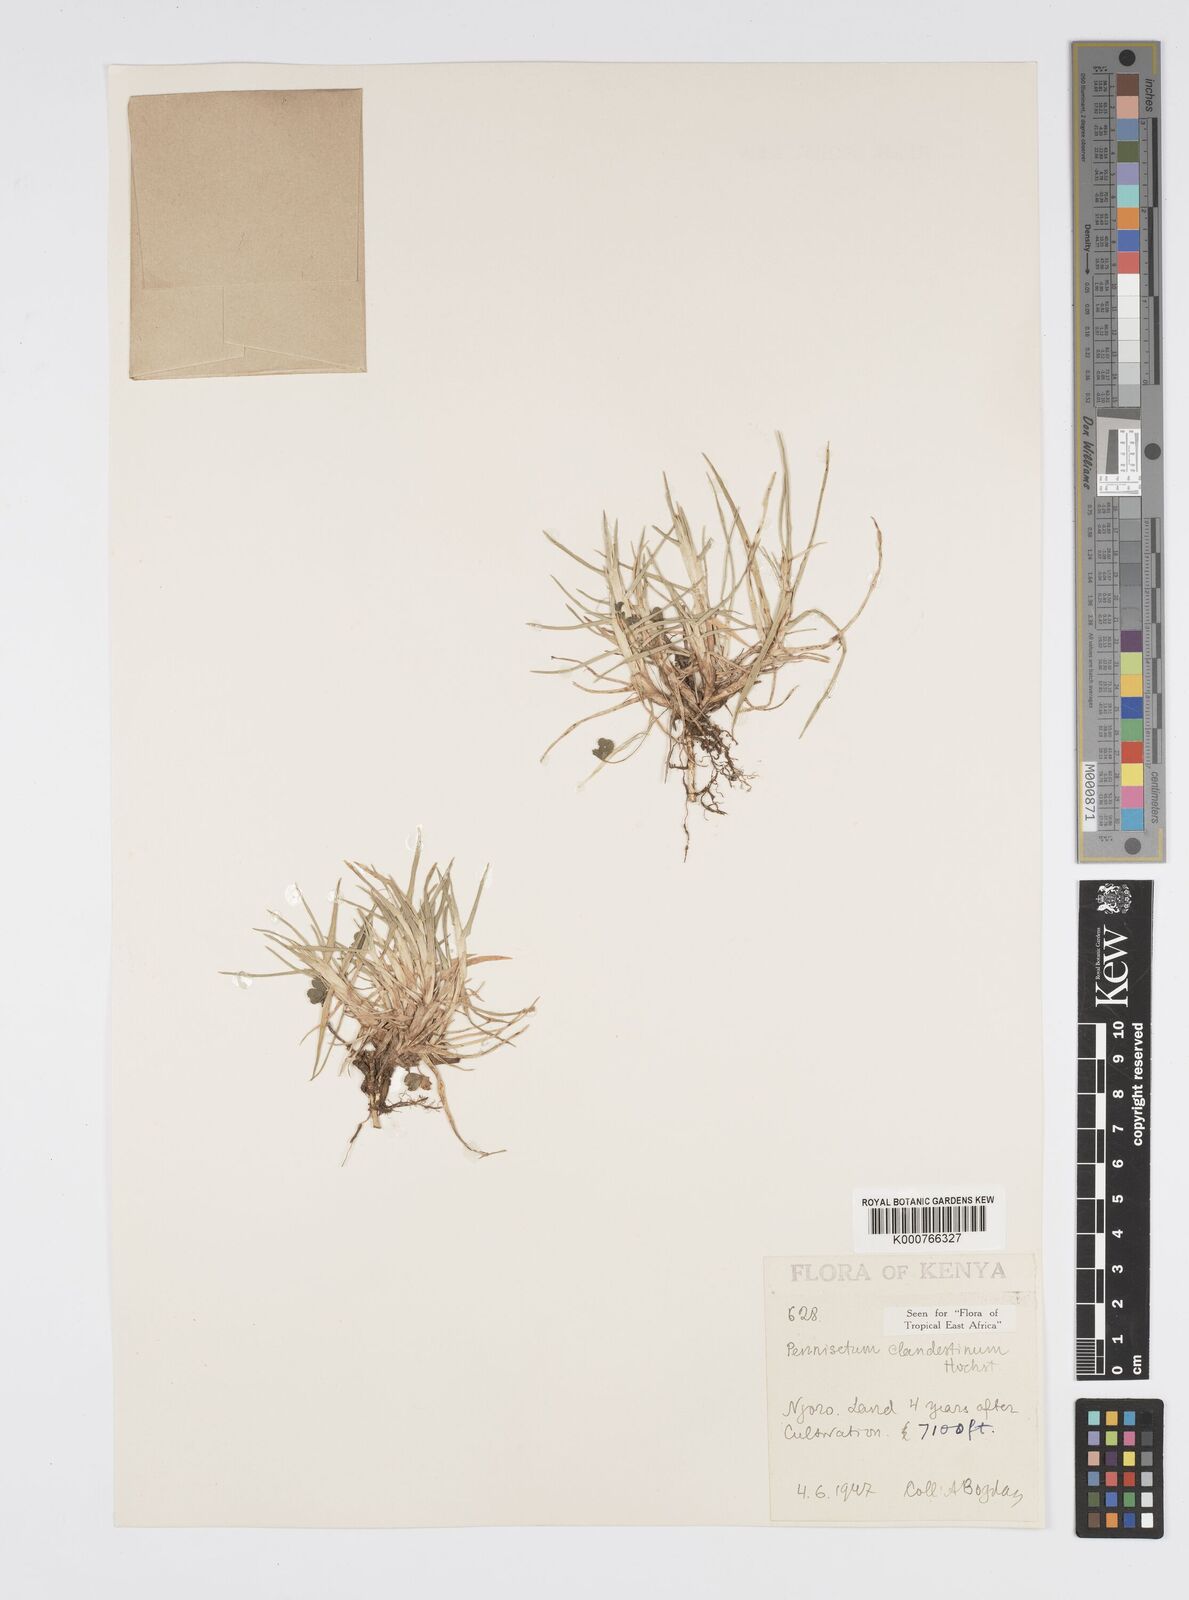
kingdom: Plantae
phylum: Tracheophyta
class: Liliopsida
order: Poales
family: Poaceae
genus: Cenchrus
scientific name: Cenchrus clandestinus
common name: Kikuyugrass
